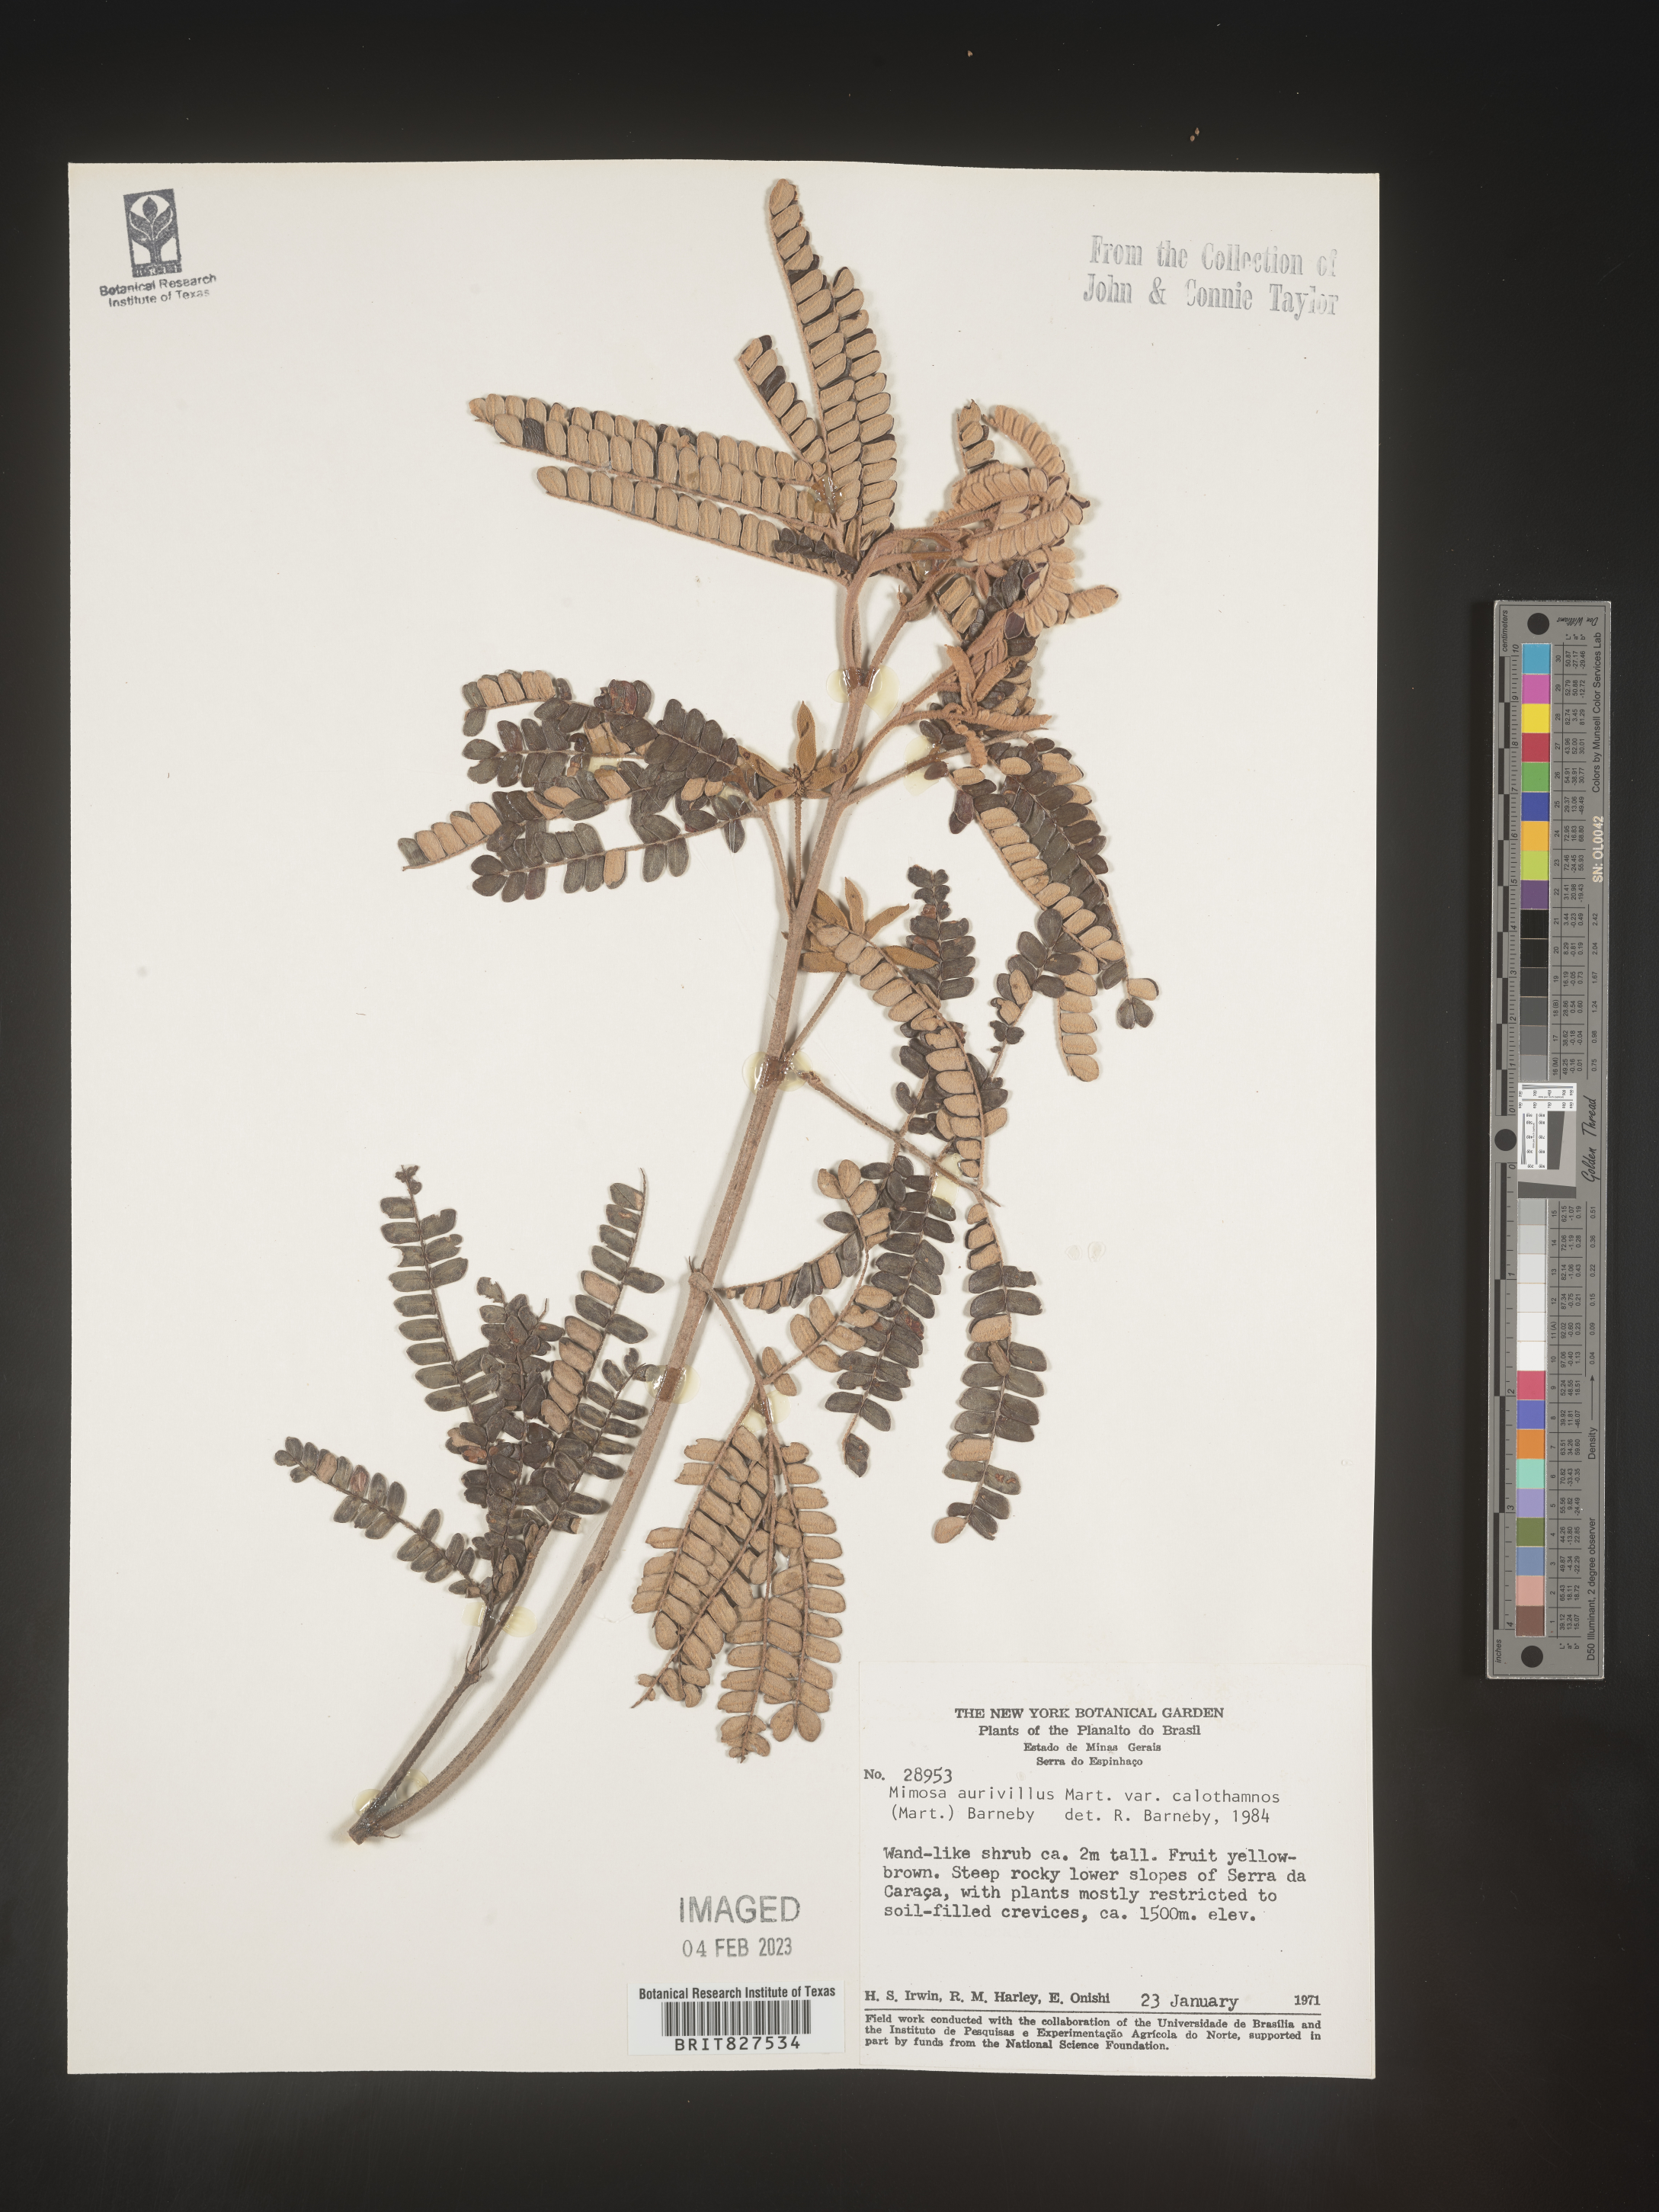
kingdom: Plantae
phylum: Tracheophyta
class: Magnoliopsida
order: Fabales
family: Fabaceae
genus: Mimosa
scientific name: Mimosa
